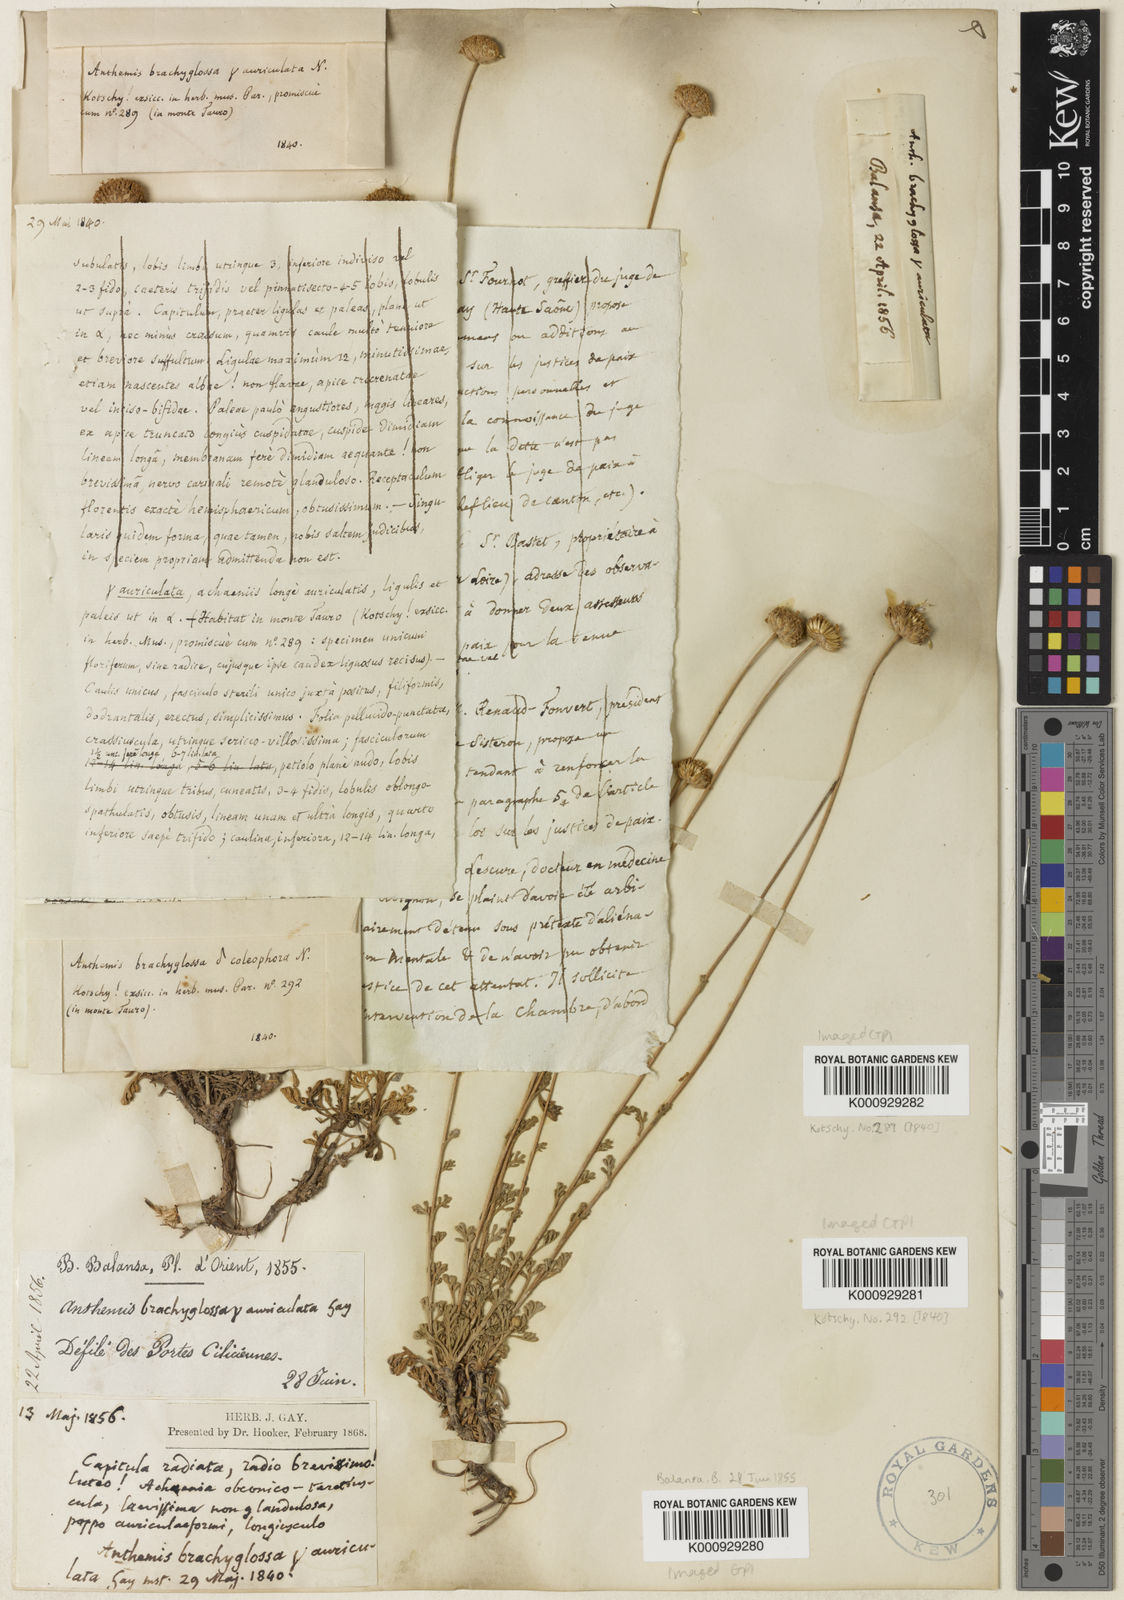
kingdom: Plantae
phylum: Tracheophyta
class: Magnoliopsida
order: Asterales
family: Asteraceae
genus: Anthemis
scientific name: Anthemis kotschyana
